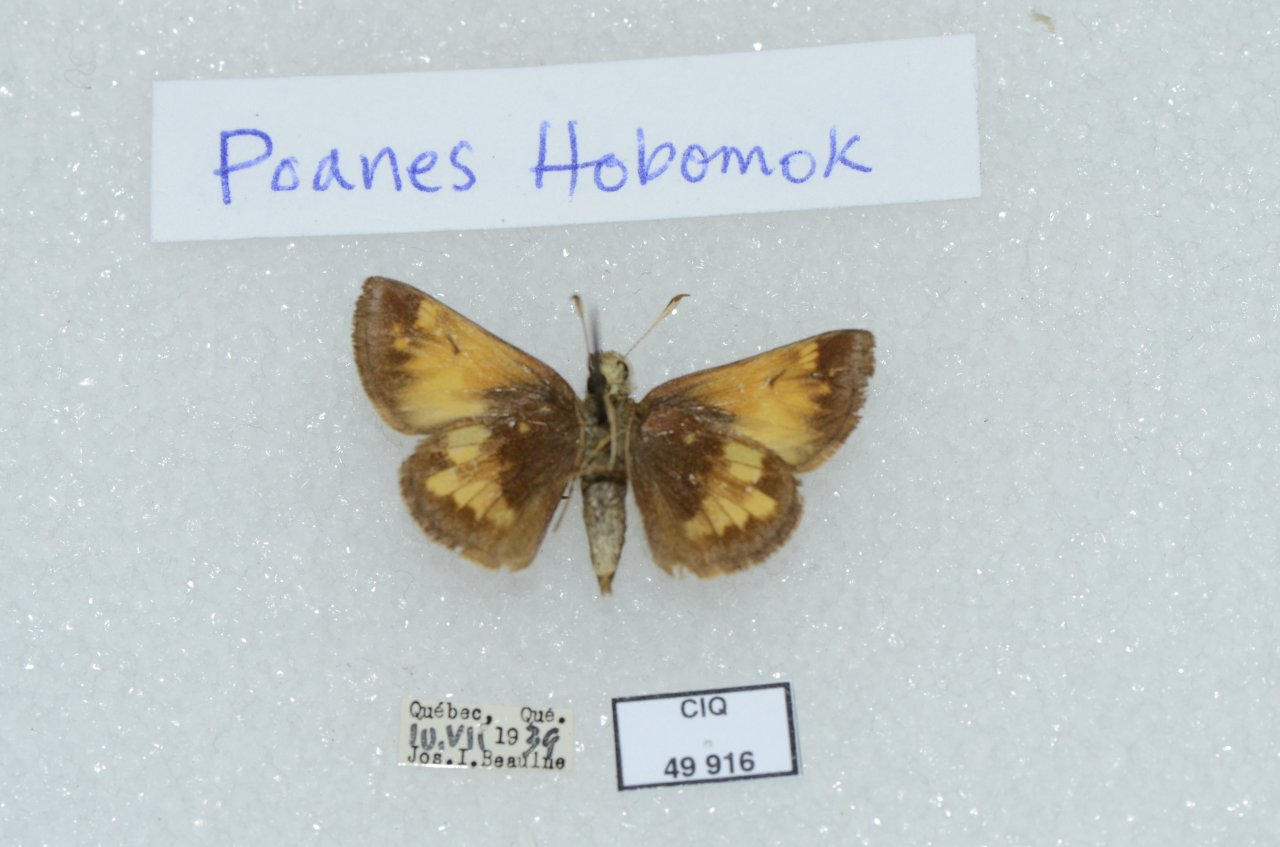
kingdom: Animalia
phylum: Arthropoda
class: Insecta
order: Lepidoptera
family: Hesperiidae
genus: Lon
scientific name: Lon hobomok
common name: Hobomok Skipper
